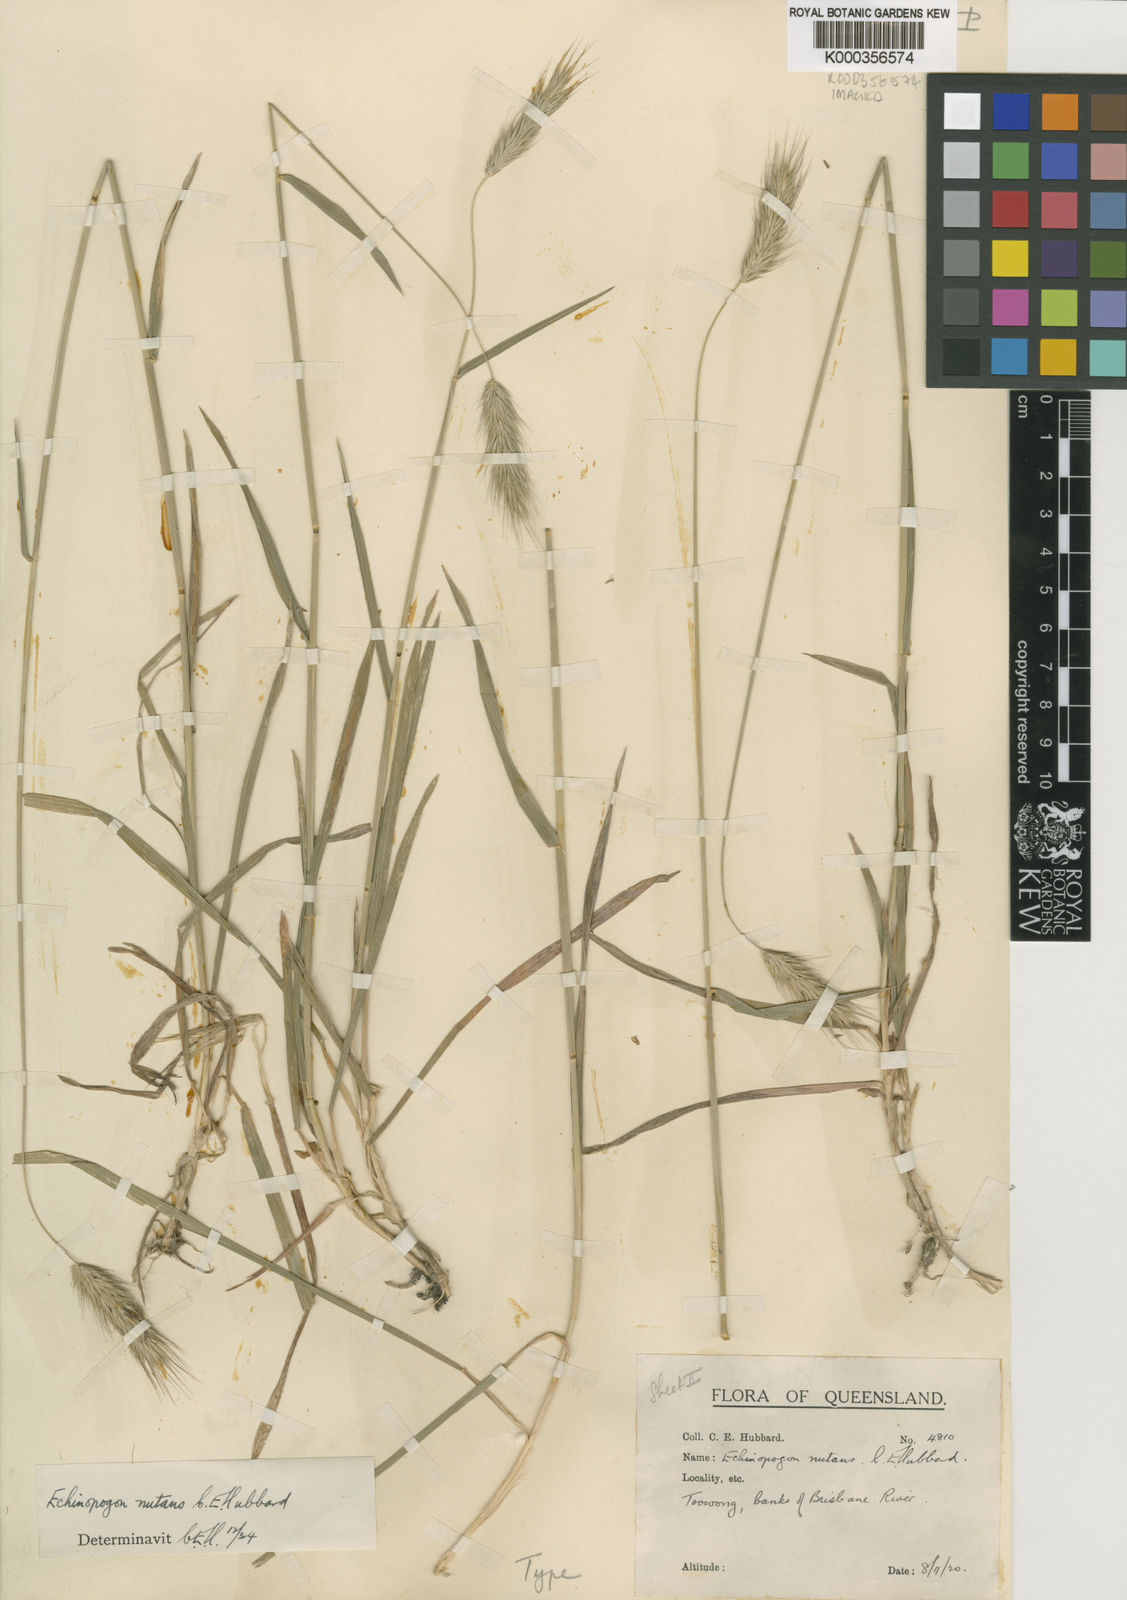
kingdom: Plantae
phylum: Tracheophyta
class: Liliopsida
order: Poales
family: Poaceae
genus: Echinopogon
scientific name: Echinopogon nutans
